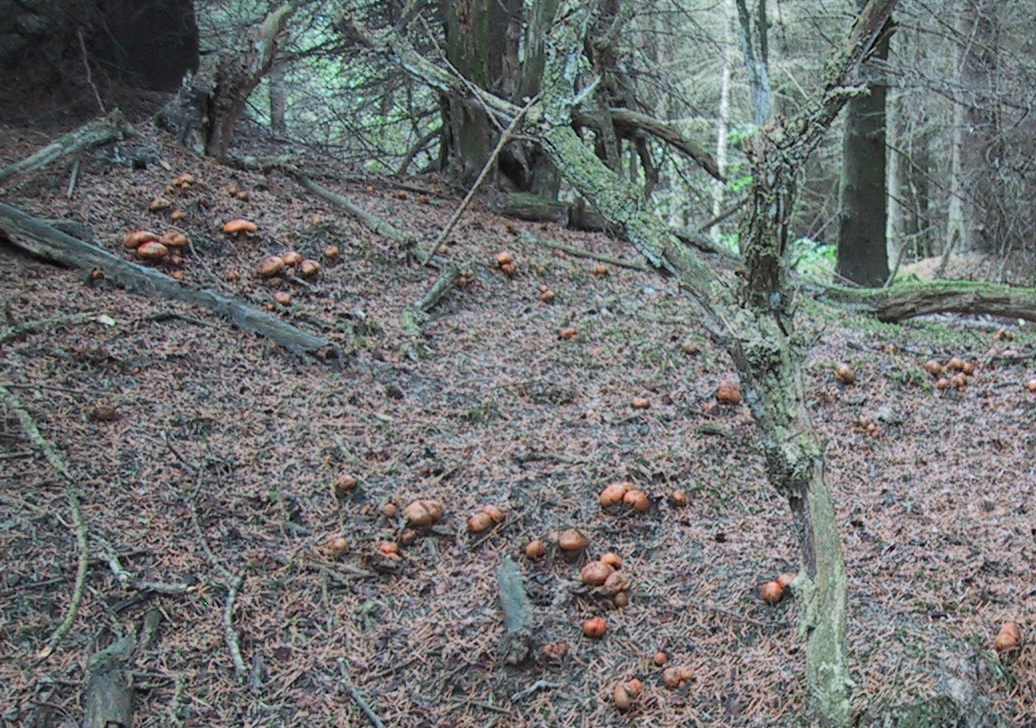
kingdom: Fungi
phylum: Basidiomycota
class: Agaricomycetes
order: Agaricales
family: Tricholomataceae
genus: Tricholoma
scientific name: Tricholoma aurantium
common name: orangegul ridderhat
